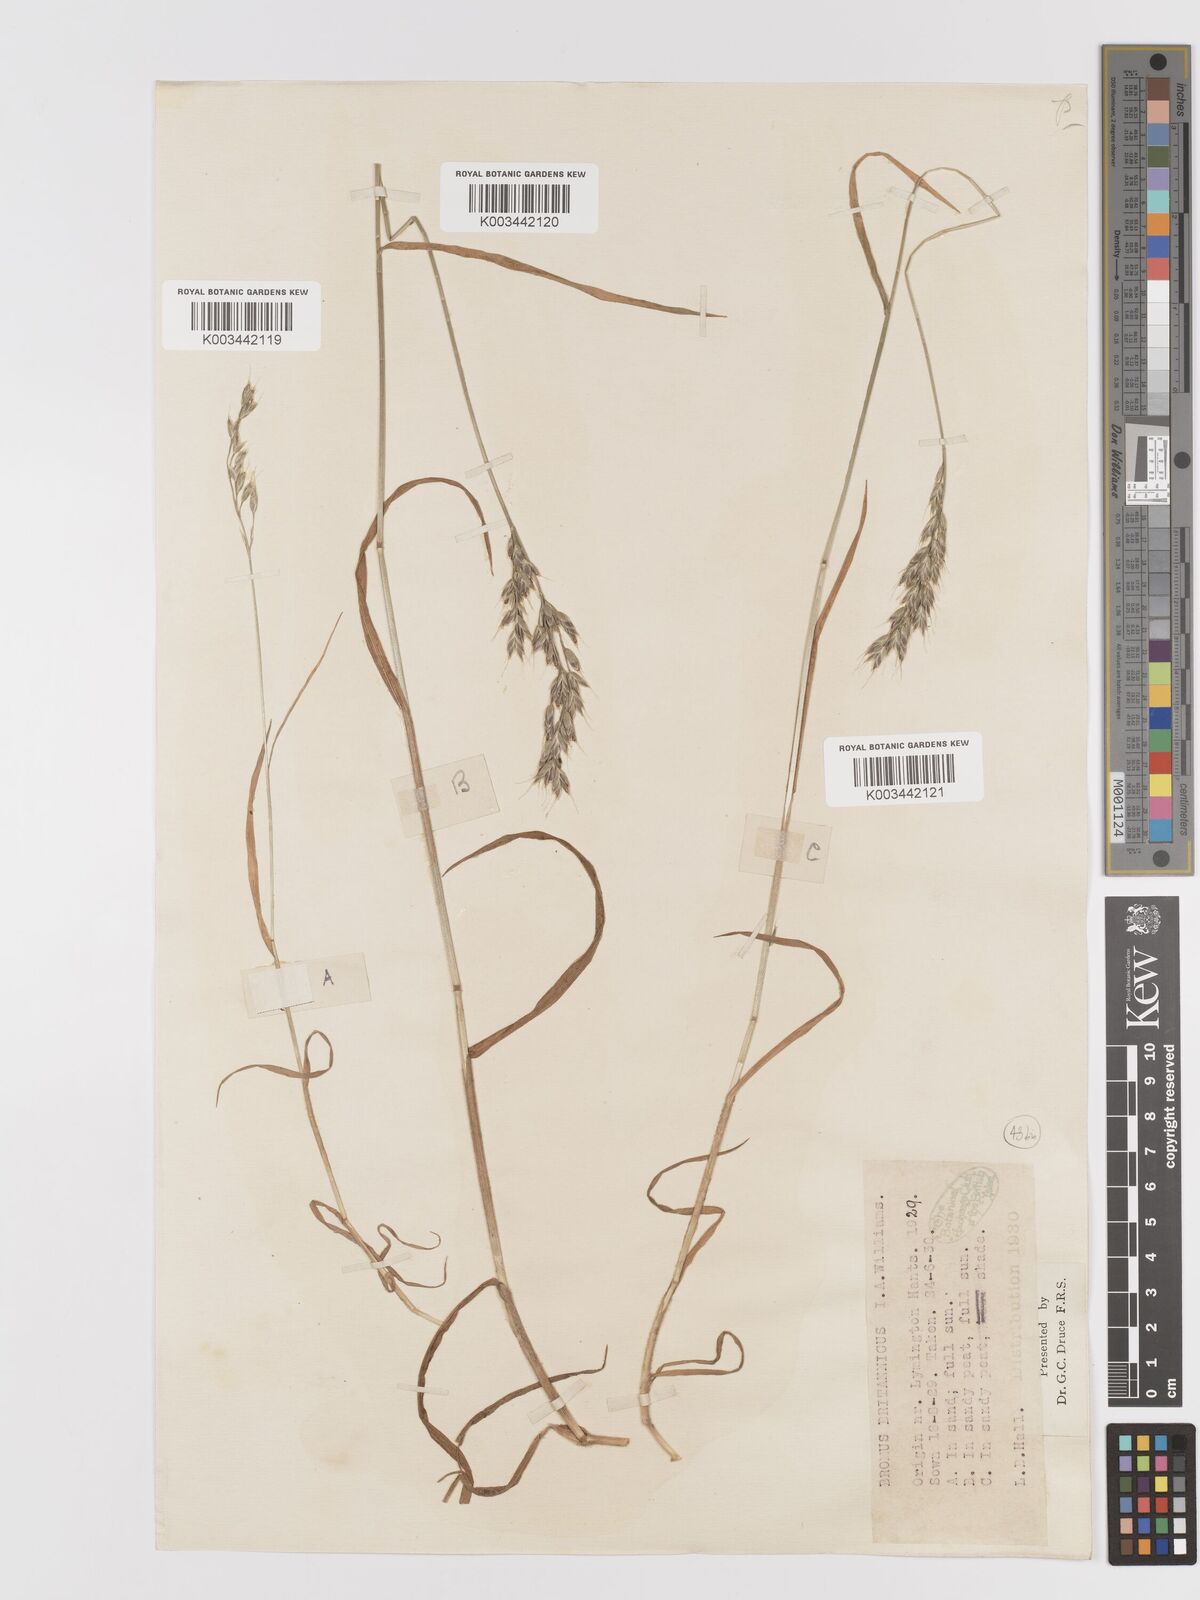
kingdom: Plantae
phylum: Tracheophyta
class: Liliopsida
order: Poales
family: Poaceae
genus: Bromus
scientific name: Bromus lepidus
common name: Slender soft-brome
